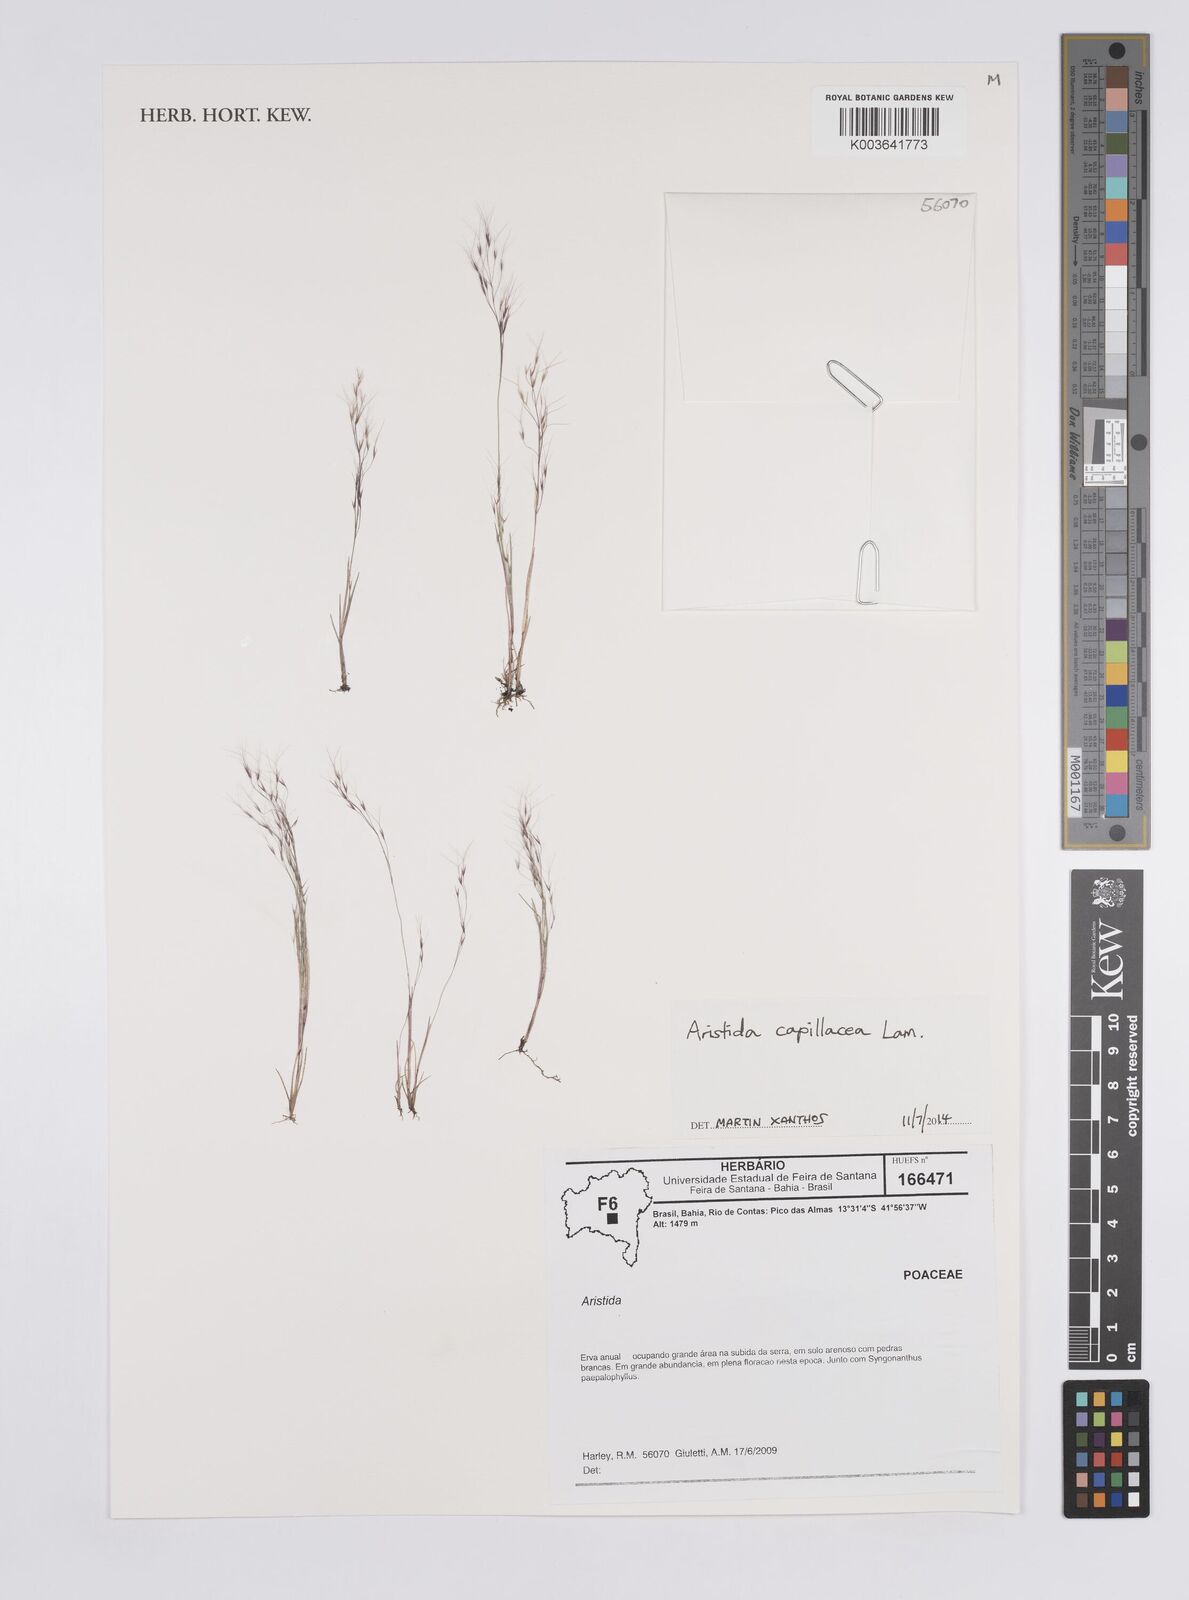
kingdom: Plantae
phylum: Tracheophyta
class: Liliopsida
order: Poales
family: Poaceae
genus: Aristida
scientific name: Aristida capillacea
